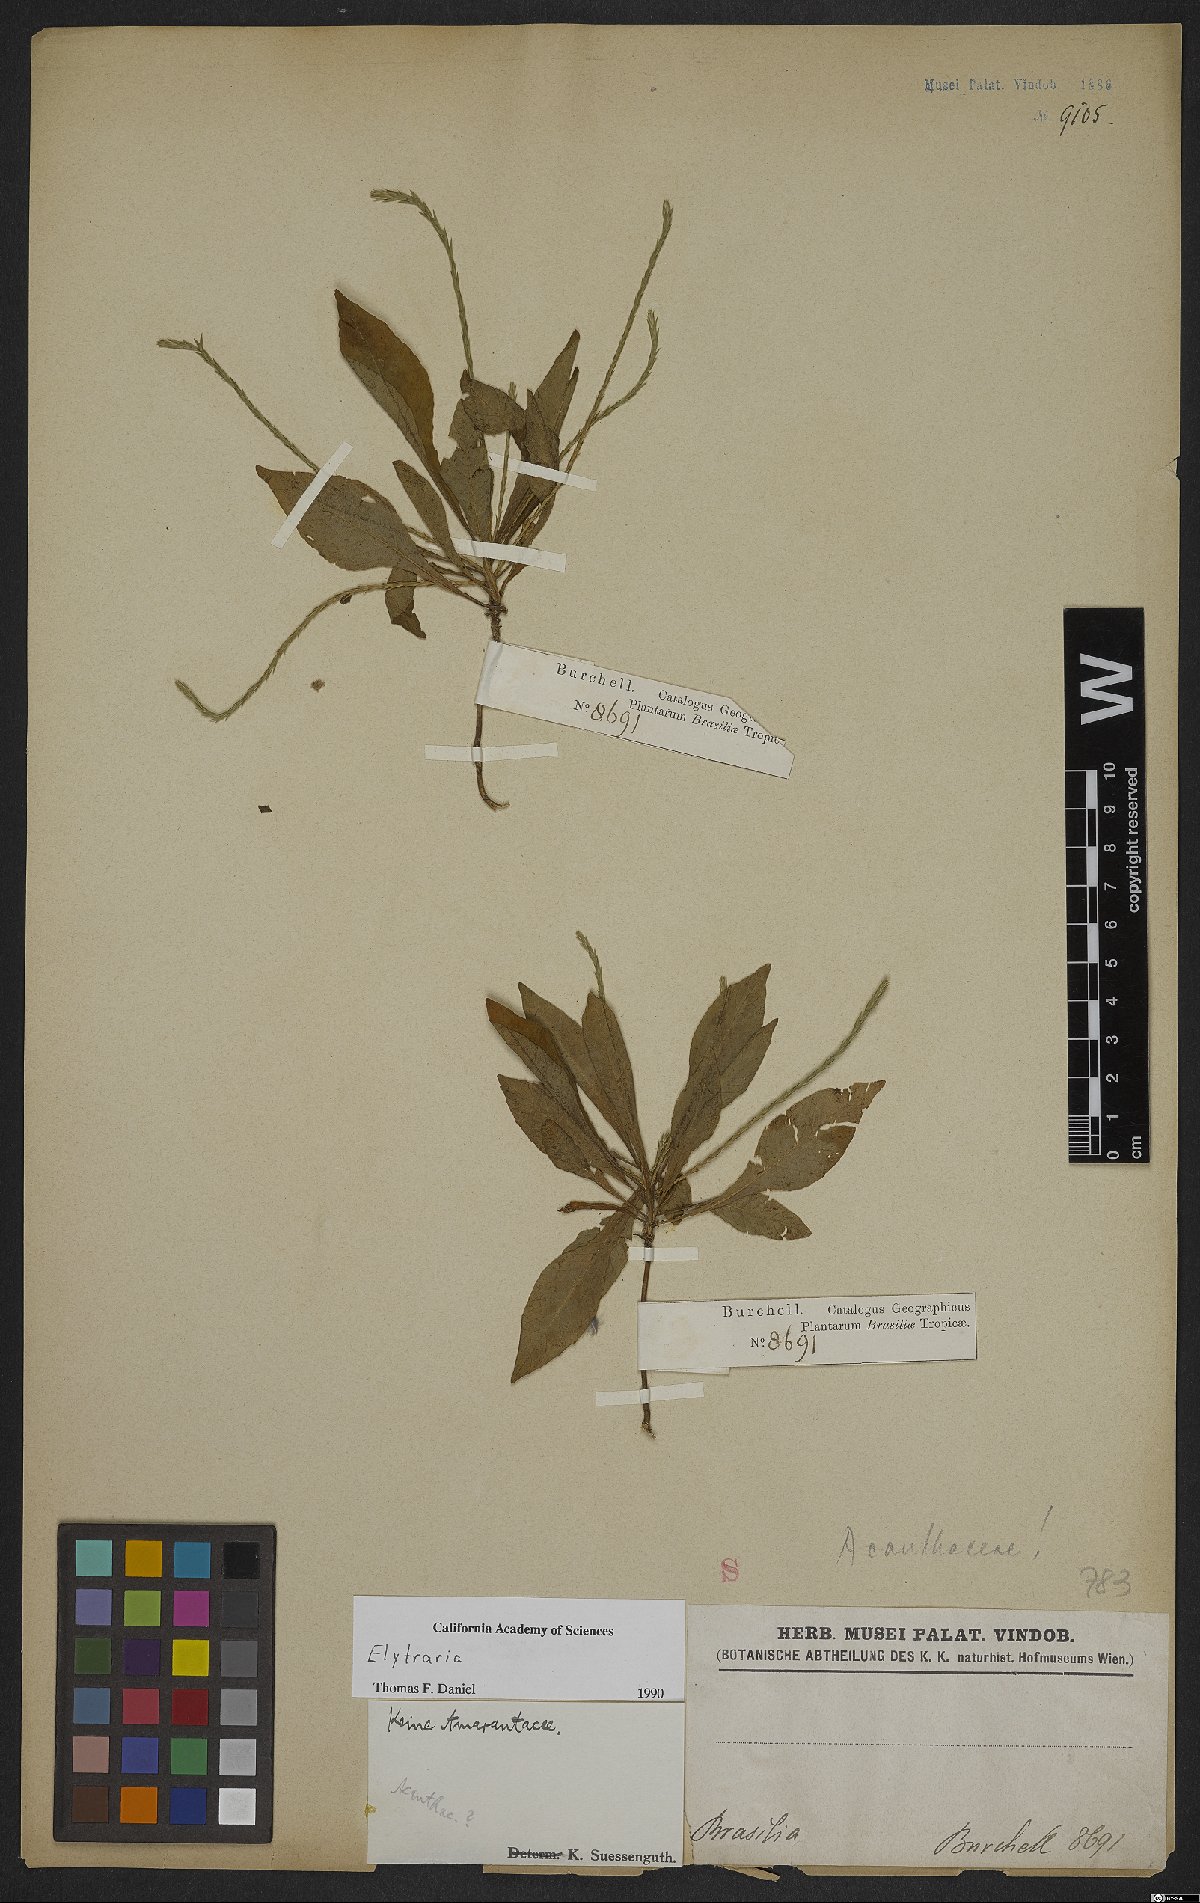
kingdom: Plantae
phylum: Tracheophyta
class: Magnoliopsida
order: Lamiales
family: Acanthaceae
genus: Elytraria
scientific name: Elytraria
